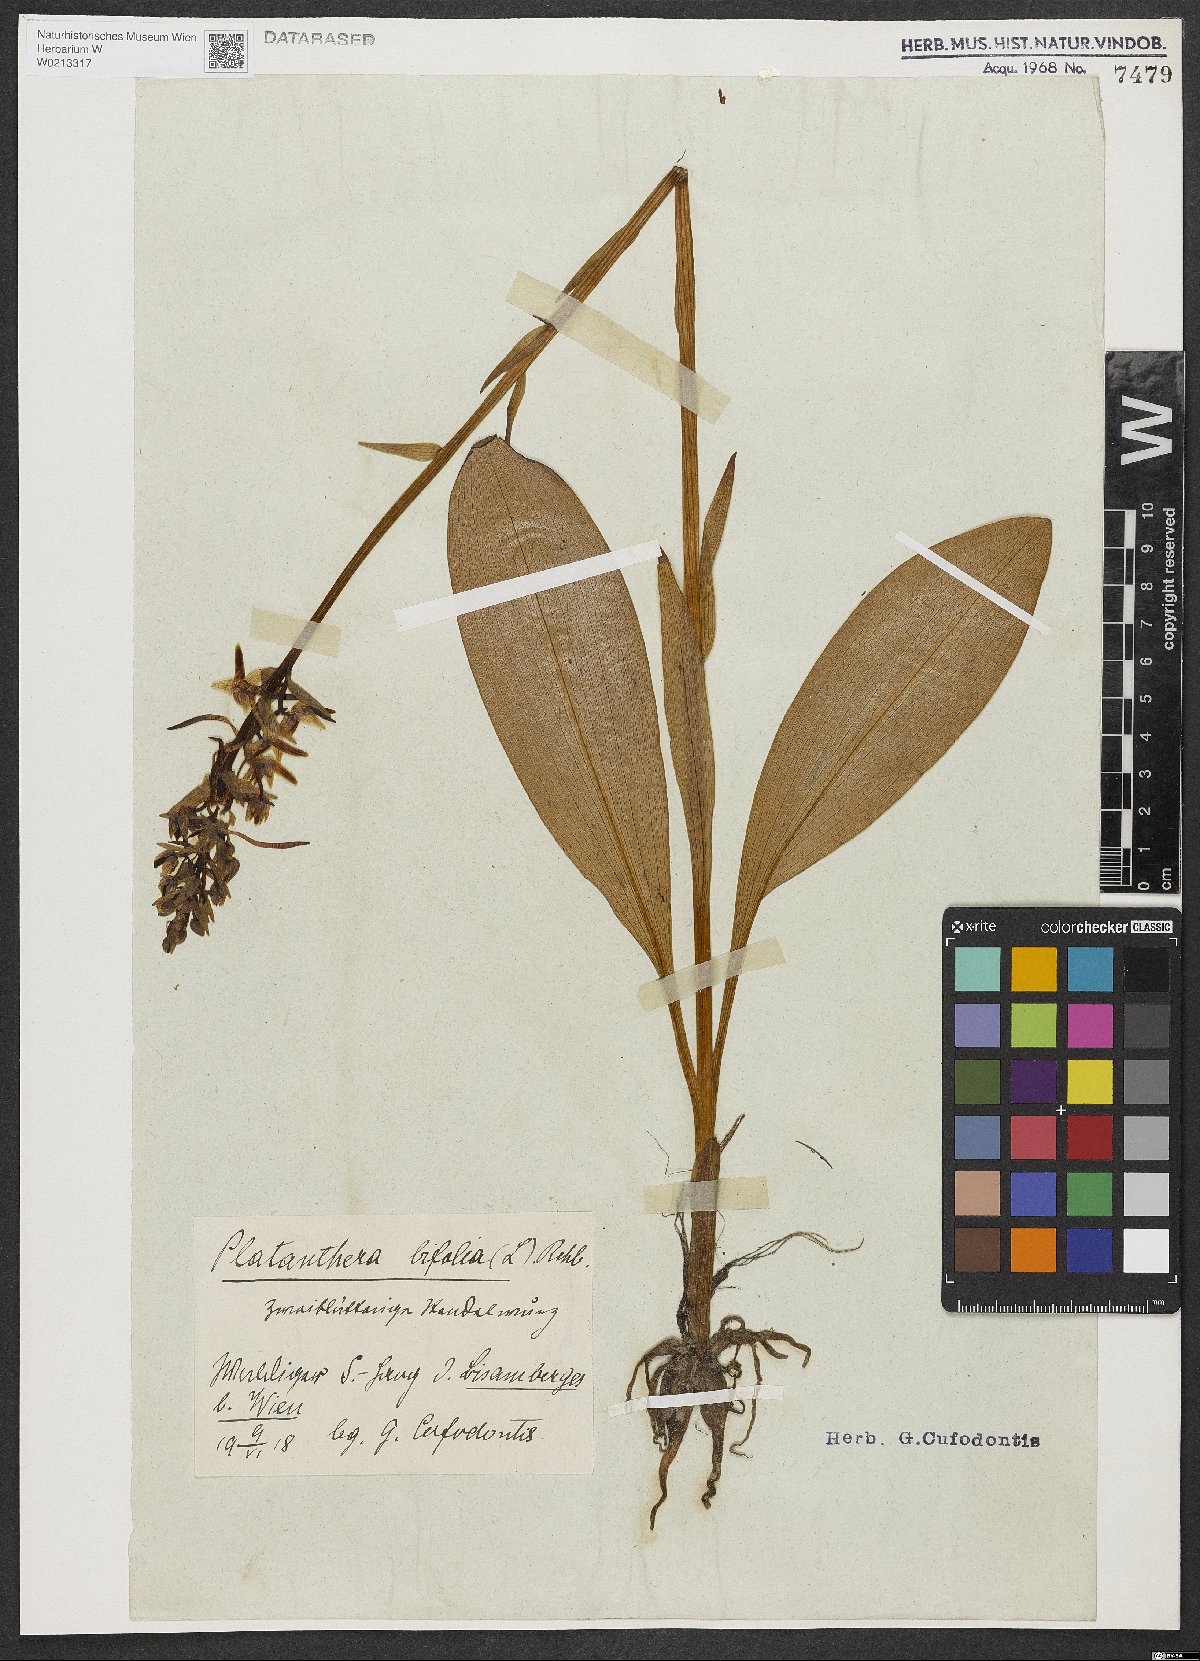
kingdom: Plantae
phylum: Tracheophyta
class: Liliopsida
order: Asparagales
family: Orchidaceae
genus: Platanthera
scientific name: Platanthera bifolia
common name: Lesser butterfly-orchid
